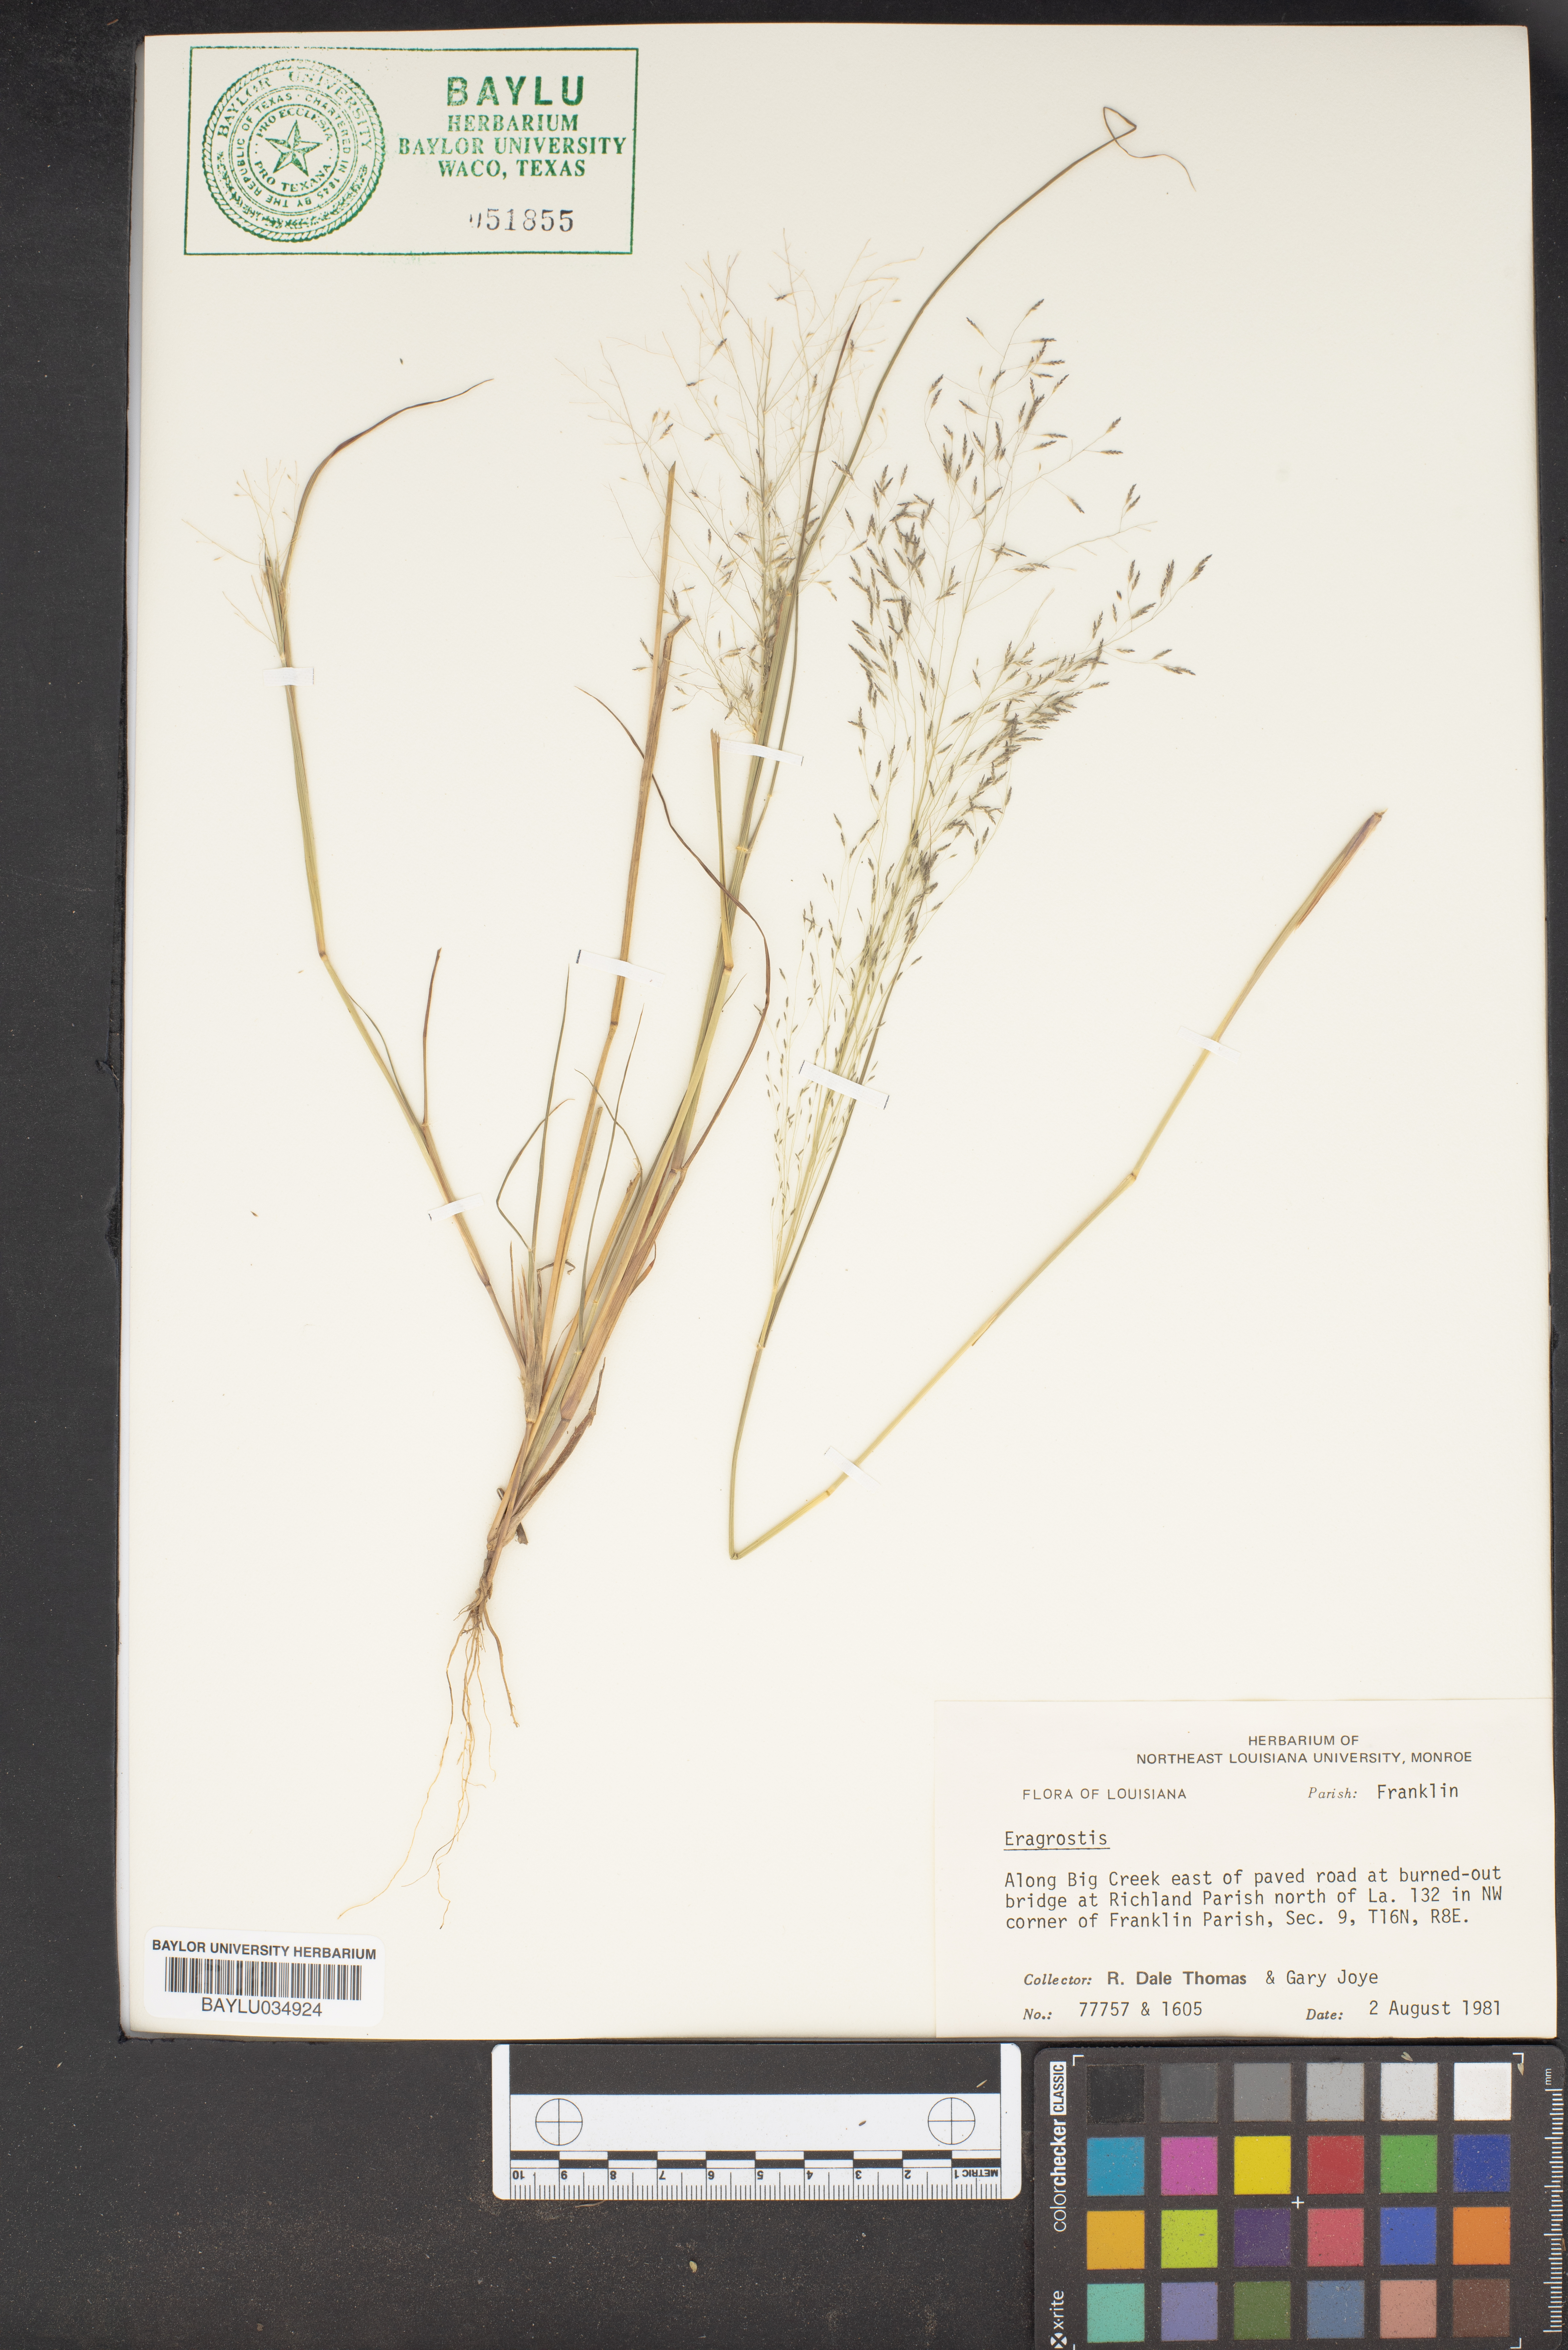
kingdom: Plantae
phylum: Tracheophyta
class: Liliopsida
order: Poales
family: Poaceae
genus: Eragrostis
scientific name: Eragrostis
